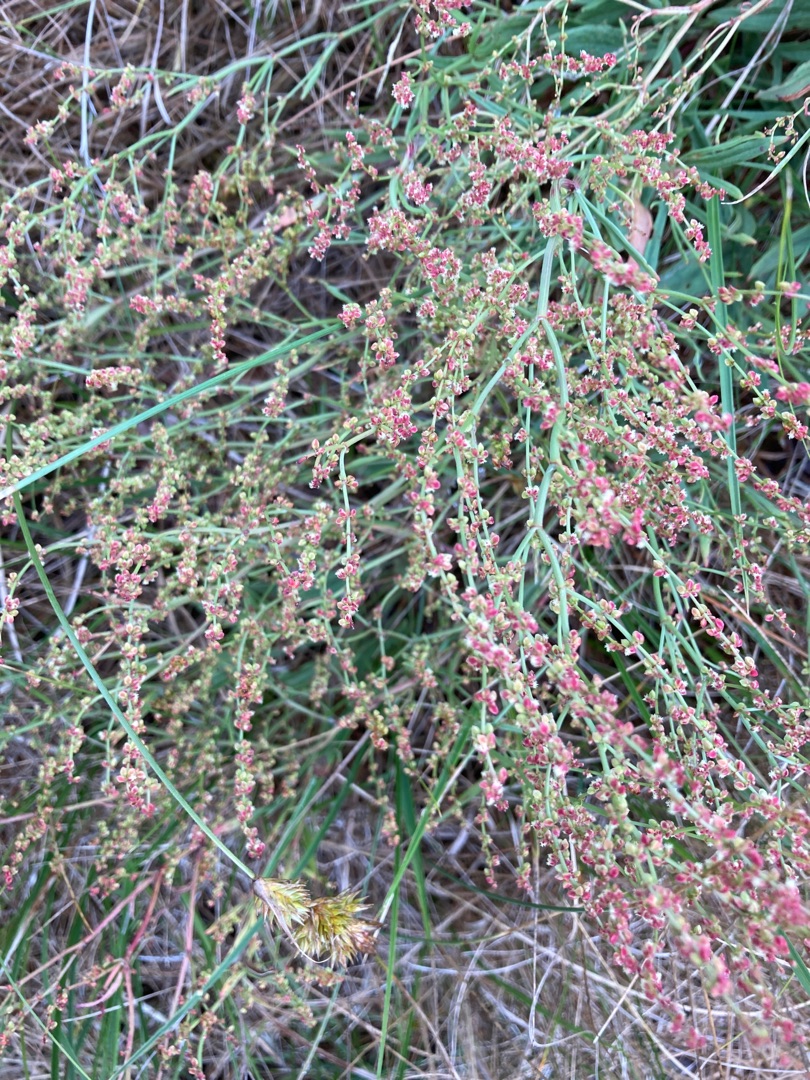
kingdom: Plantae
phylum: Tracheophyta
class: Magnoliopsida
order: Caryophyllales
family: Polygonaceae
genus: Rumex
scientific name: Rumex acetosella
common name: Rødknæ
